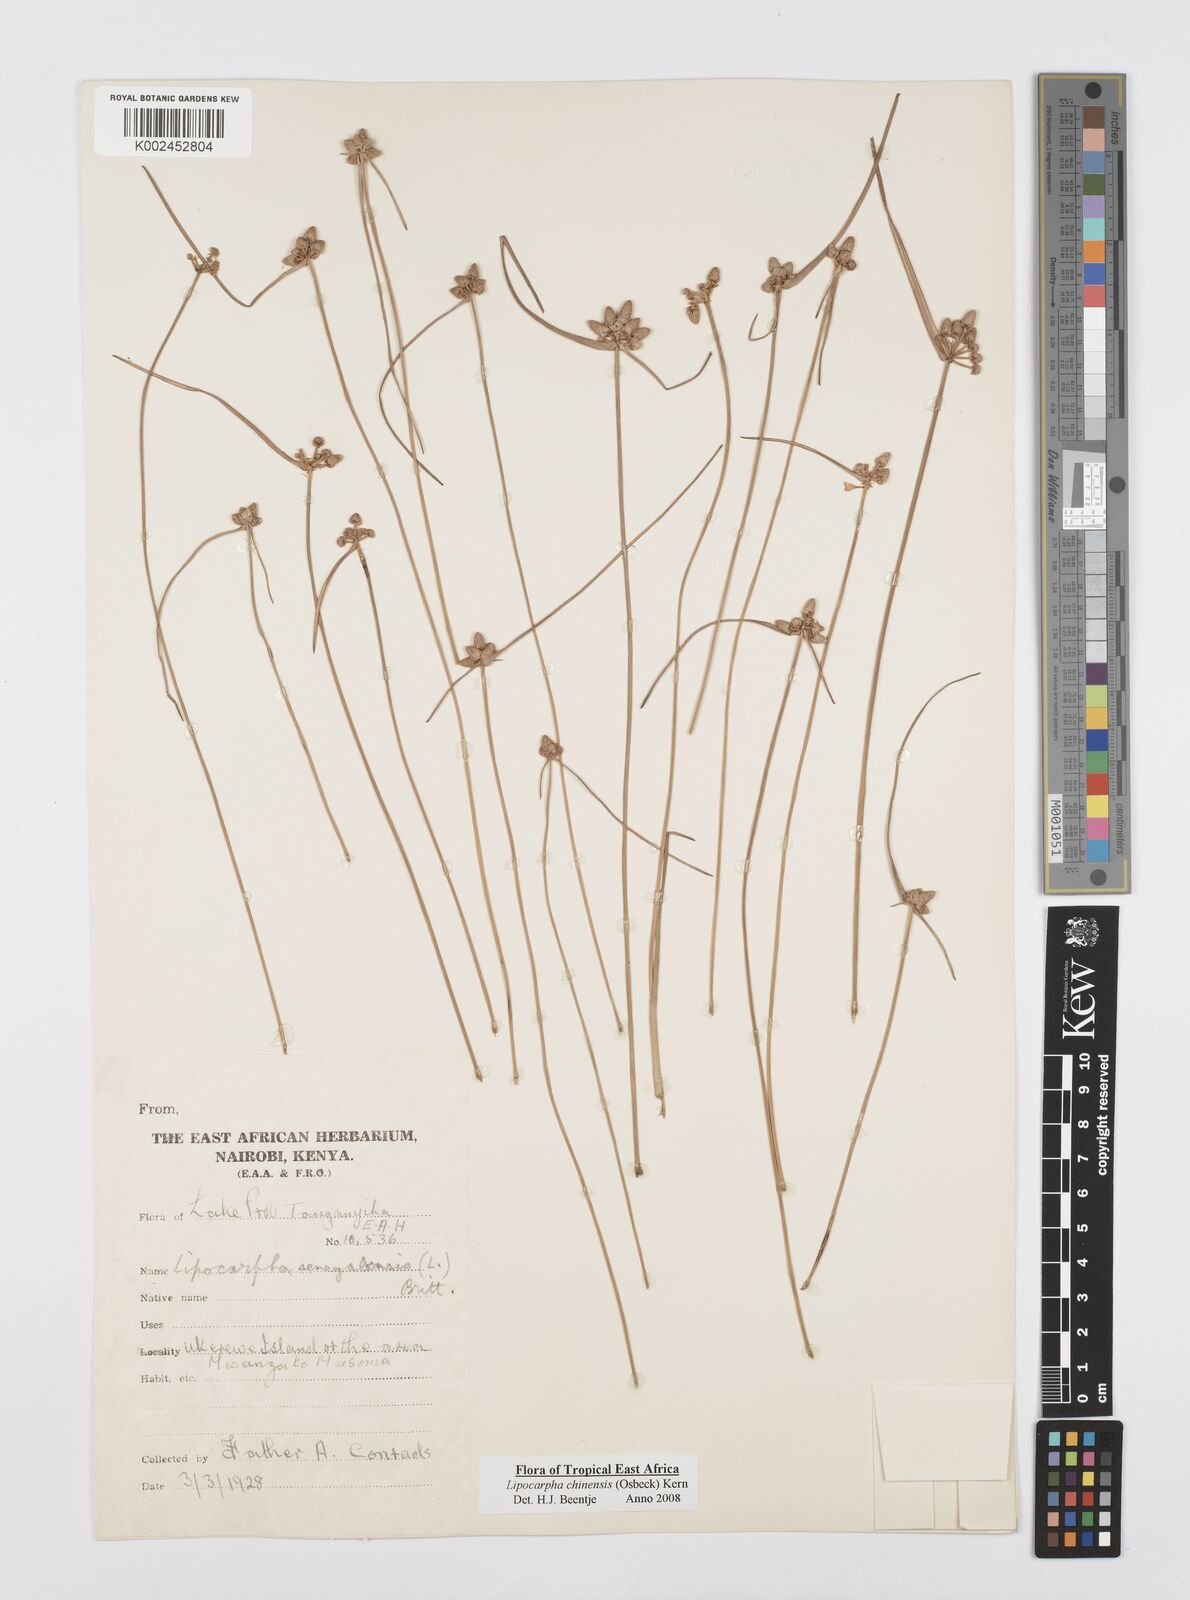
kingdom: Plantae
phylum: Tracheophyta
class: Liliopsida
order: Poales
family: Cyperaceae
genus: Cyperus
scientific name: Cyperus albescens
